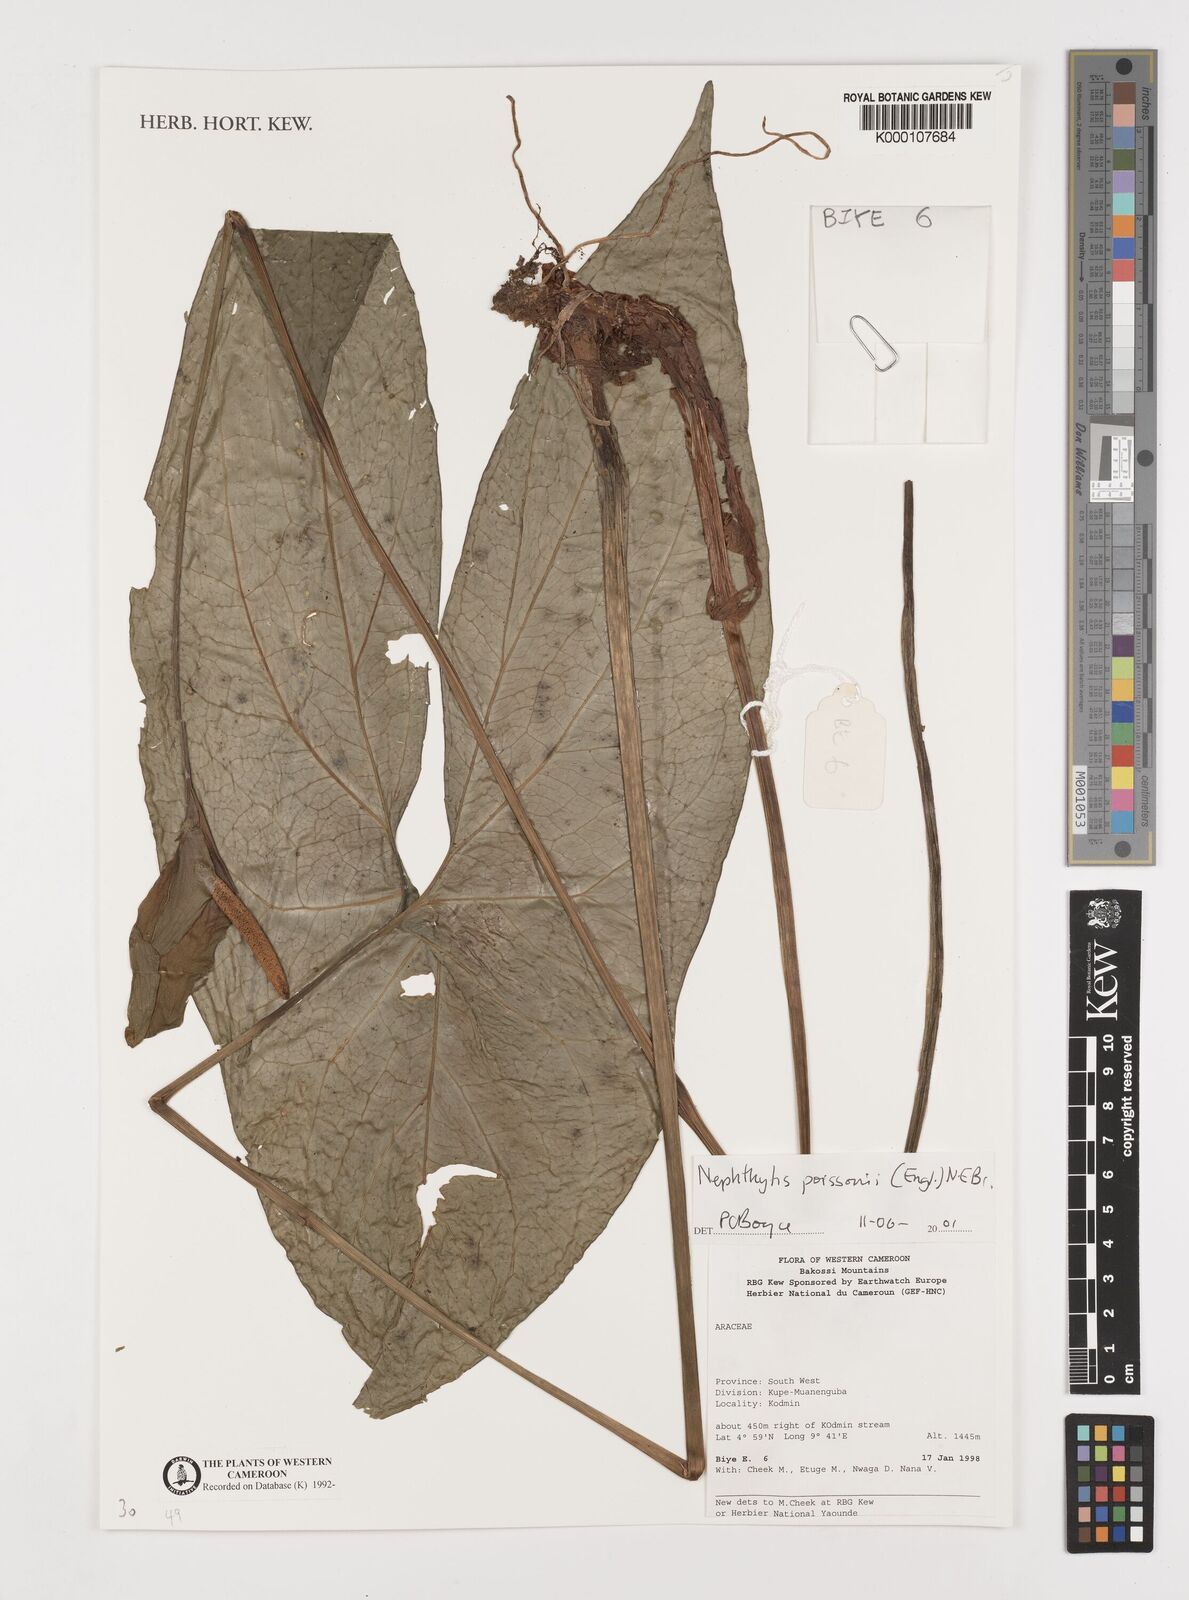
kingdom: Plantae
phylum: Tracheophyta
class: Liliopsida
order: Alismatales
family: Araceae
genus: Nephthytis
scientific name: Nephthytis poissonii
